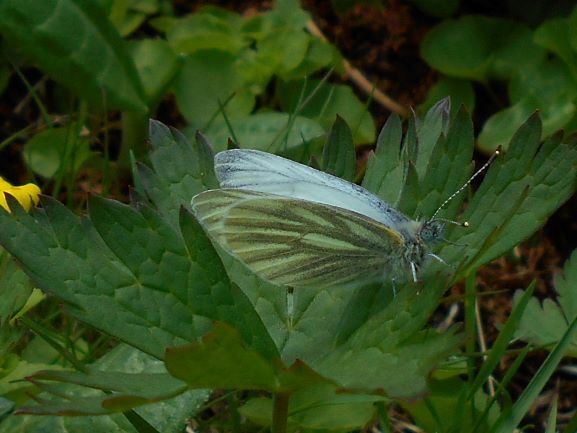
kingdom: Animalia
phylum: Arthropoda
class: Insecta
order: Lepidoptera
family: Pieridae
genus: Pieris
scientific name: Pieris napi
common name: Green-veined white
